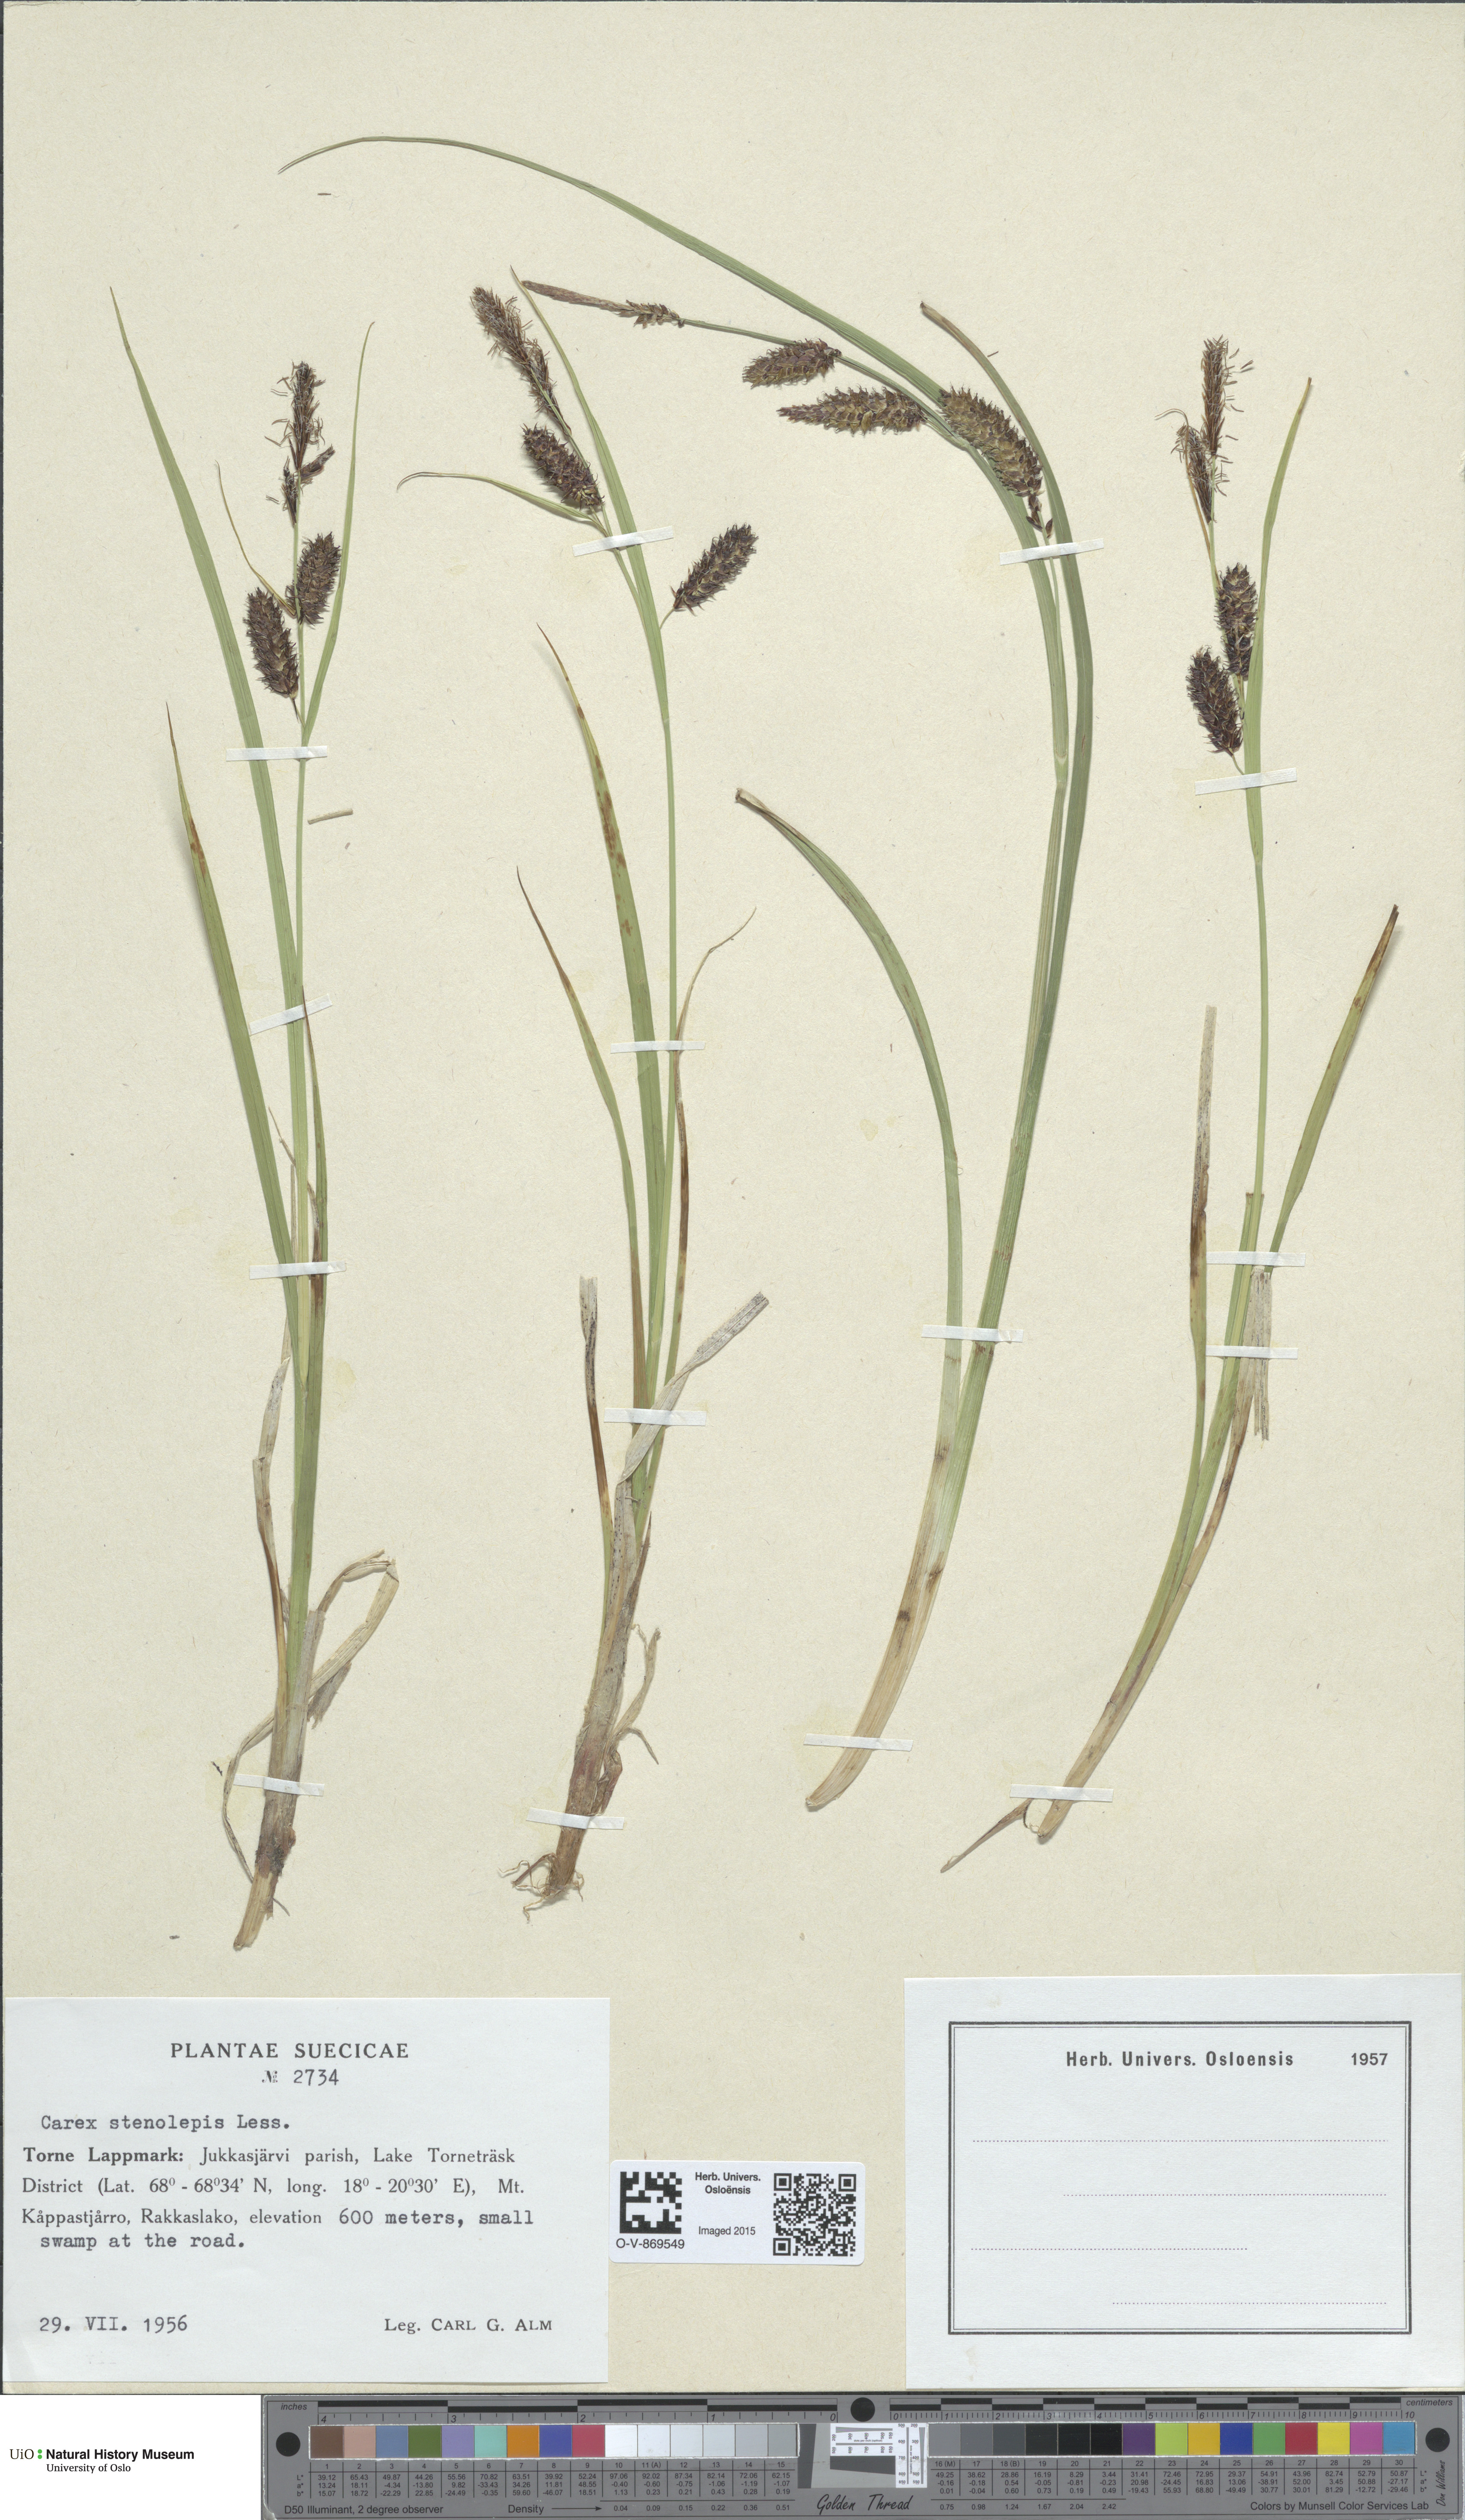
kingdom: Plantae
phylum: Tracheophyta
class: Liliopsida
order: Poales
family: Cyperaceae
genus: Carex
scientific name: Carex grahamii
